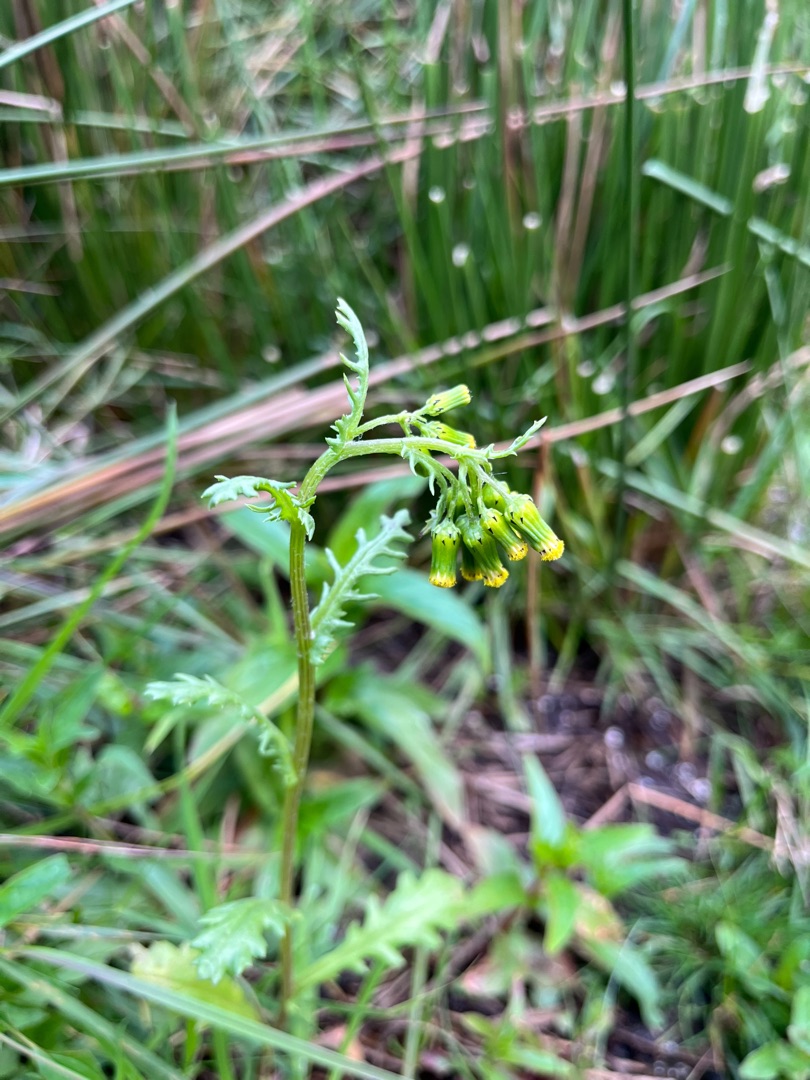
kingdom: Plantae
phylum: Tracheophyta
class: Magnoliopsida
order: Asterales
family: Asteraceae
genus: Senecio
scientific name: Senecio vulgaris
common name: Almindelig brandbæger
